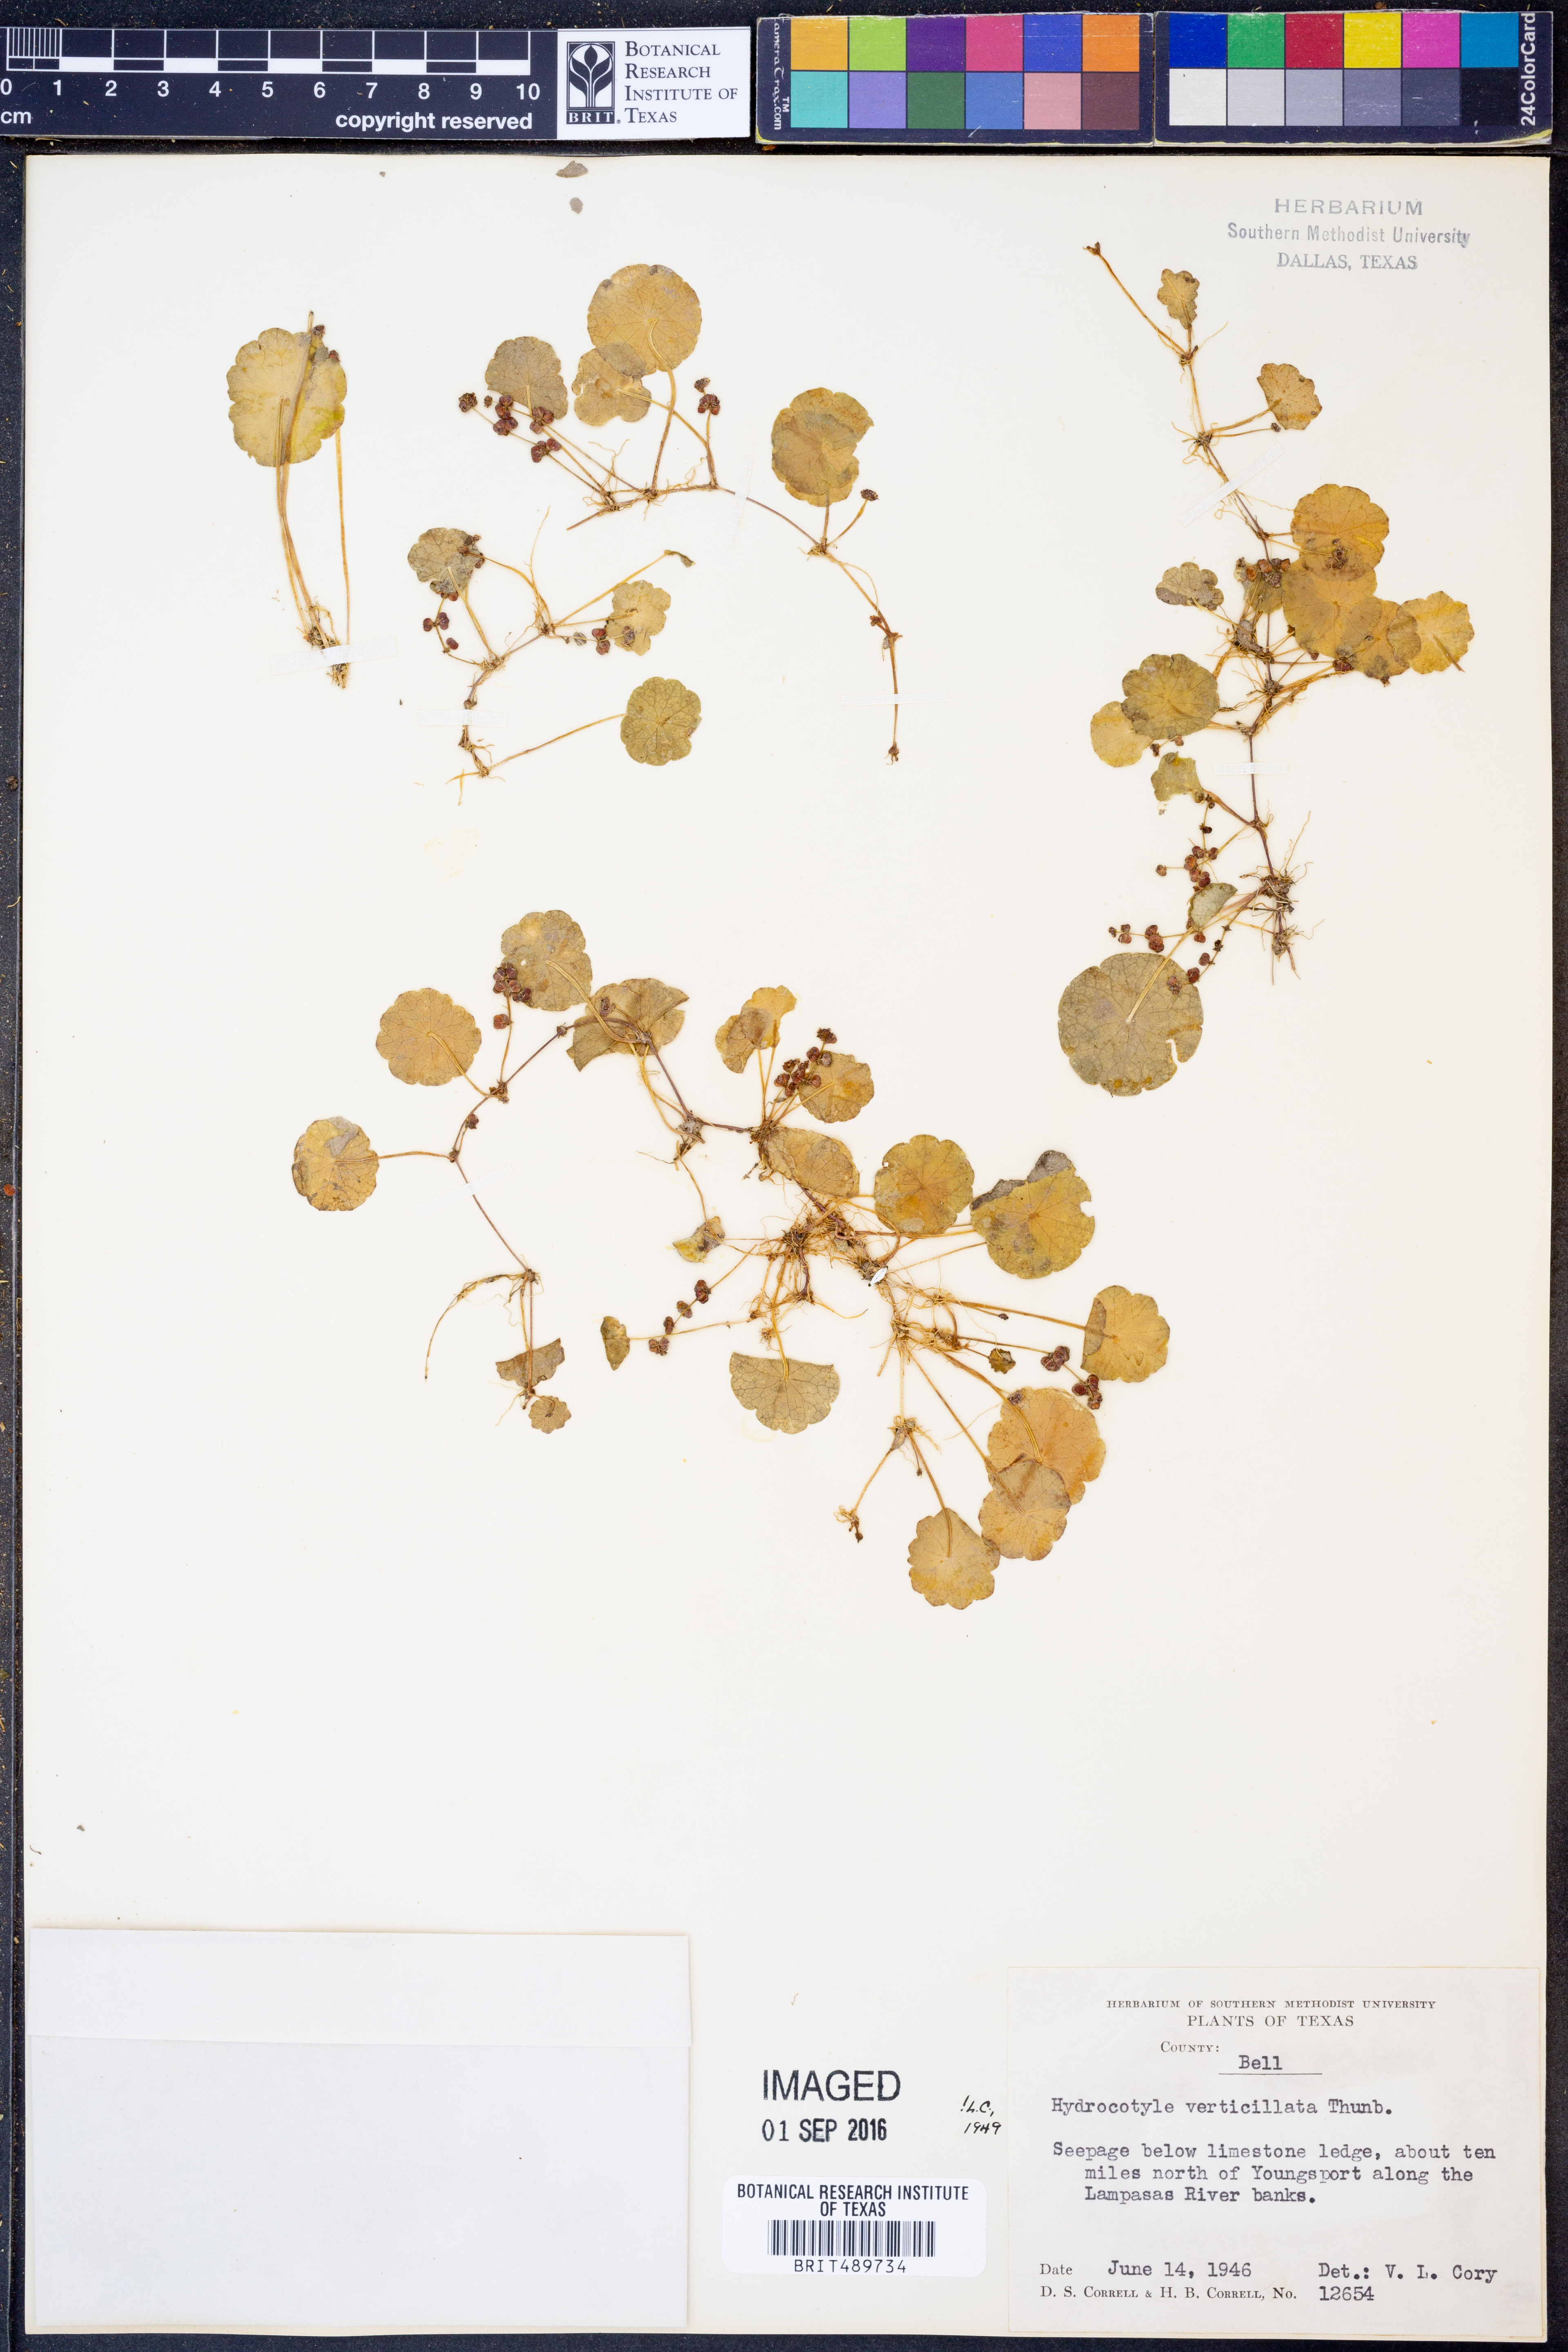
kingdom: Plantae
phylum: Tracheophyta
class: Magnoliopsida
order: Apiales
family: Araliaceae
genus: Hydrocotyle
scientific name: Hydrocotyle verticillata
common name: Whorled marshpennywort
